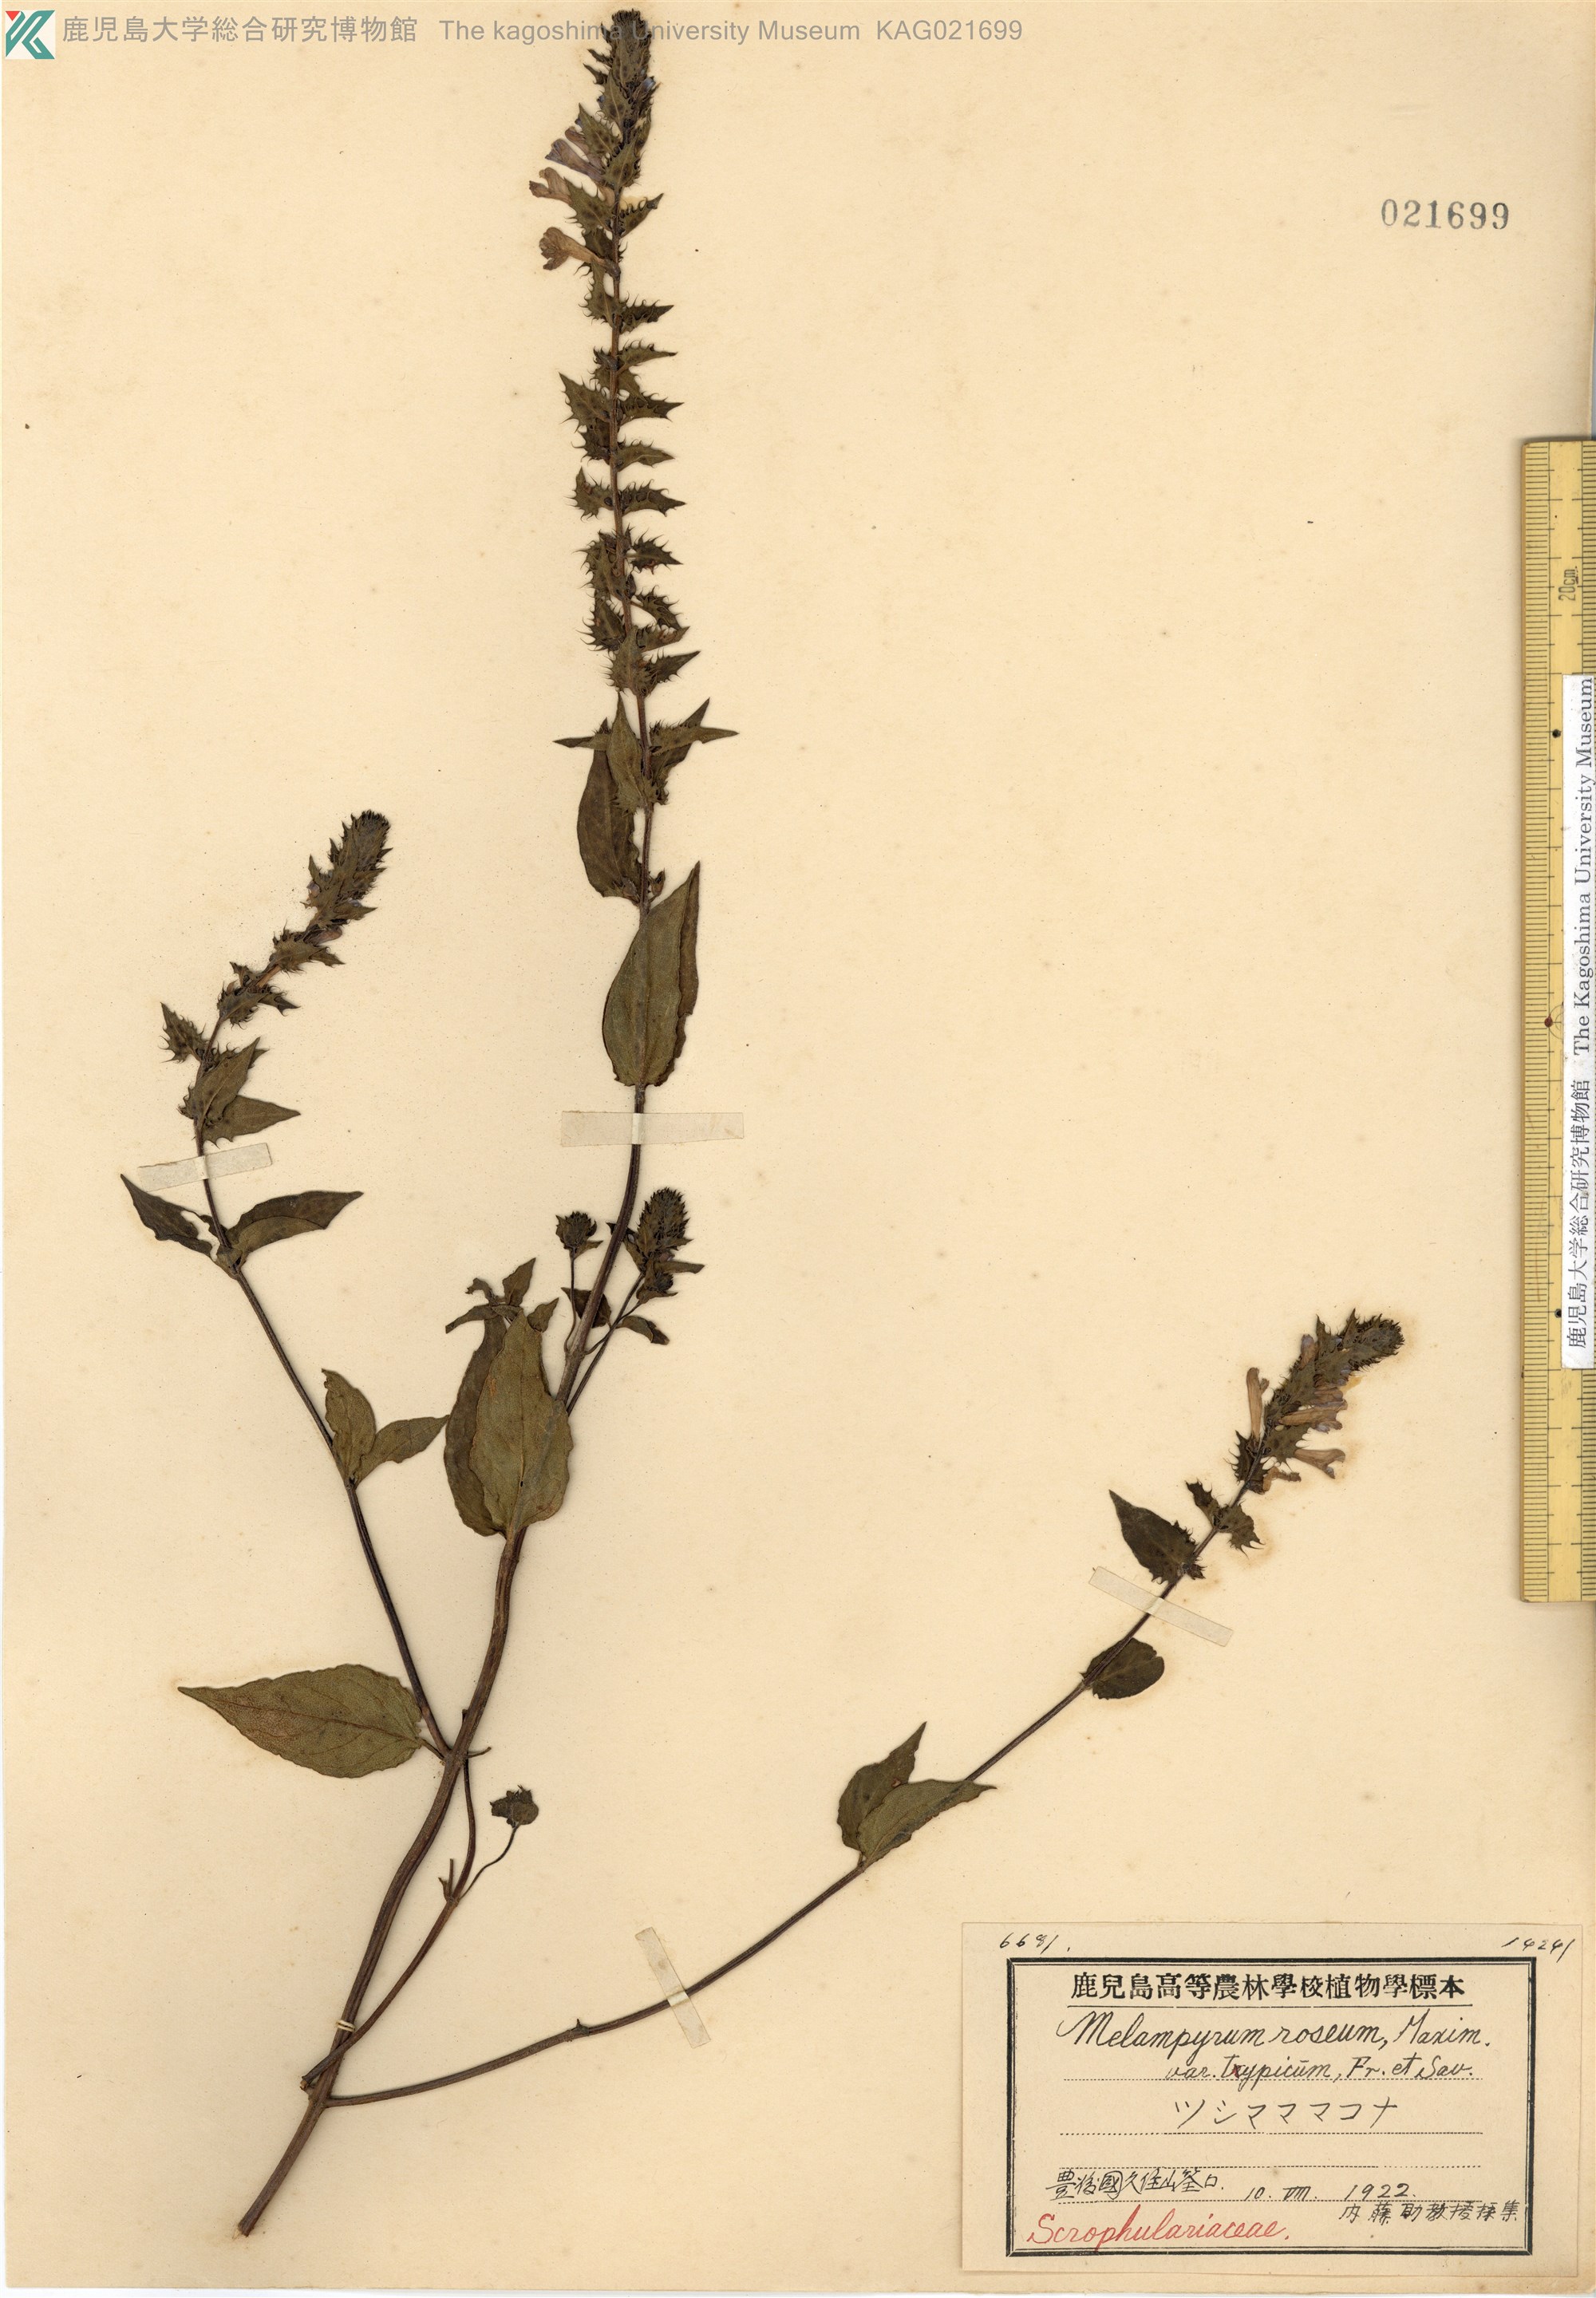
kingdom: Plantae
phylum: Tracheophyta
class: Magnoliopsida
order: Lamiales
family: Orobanchaceae
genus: Melampyrum
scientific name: Melampyrum roseum
